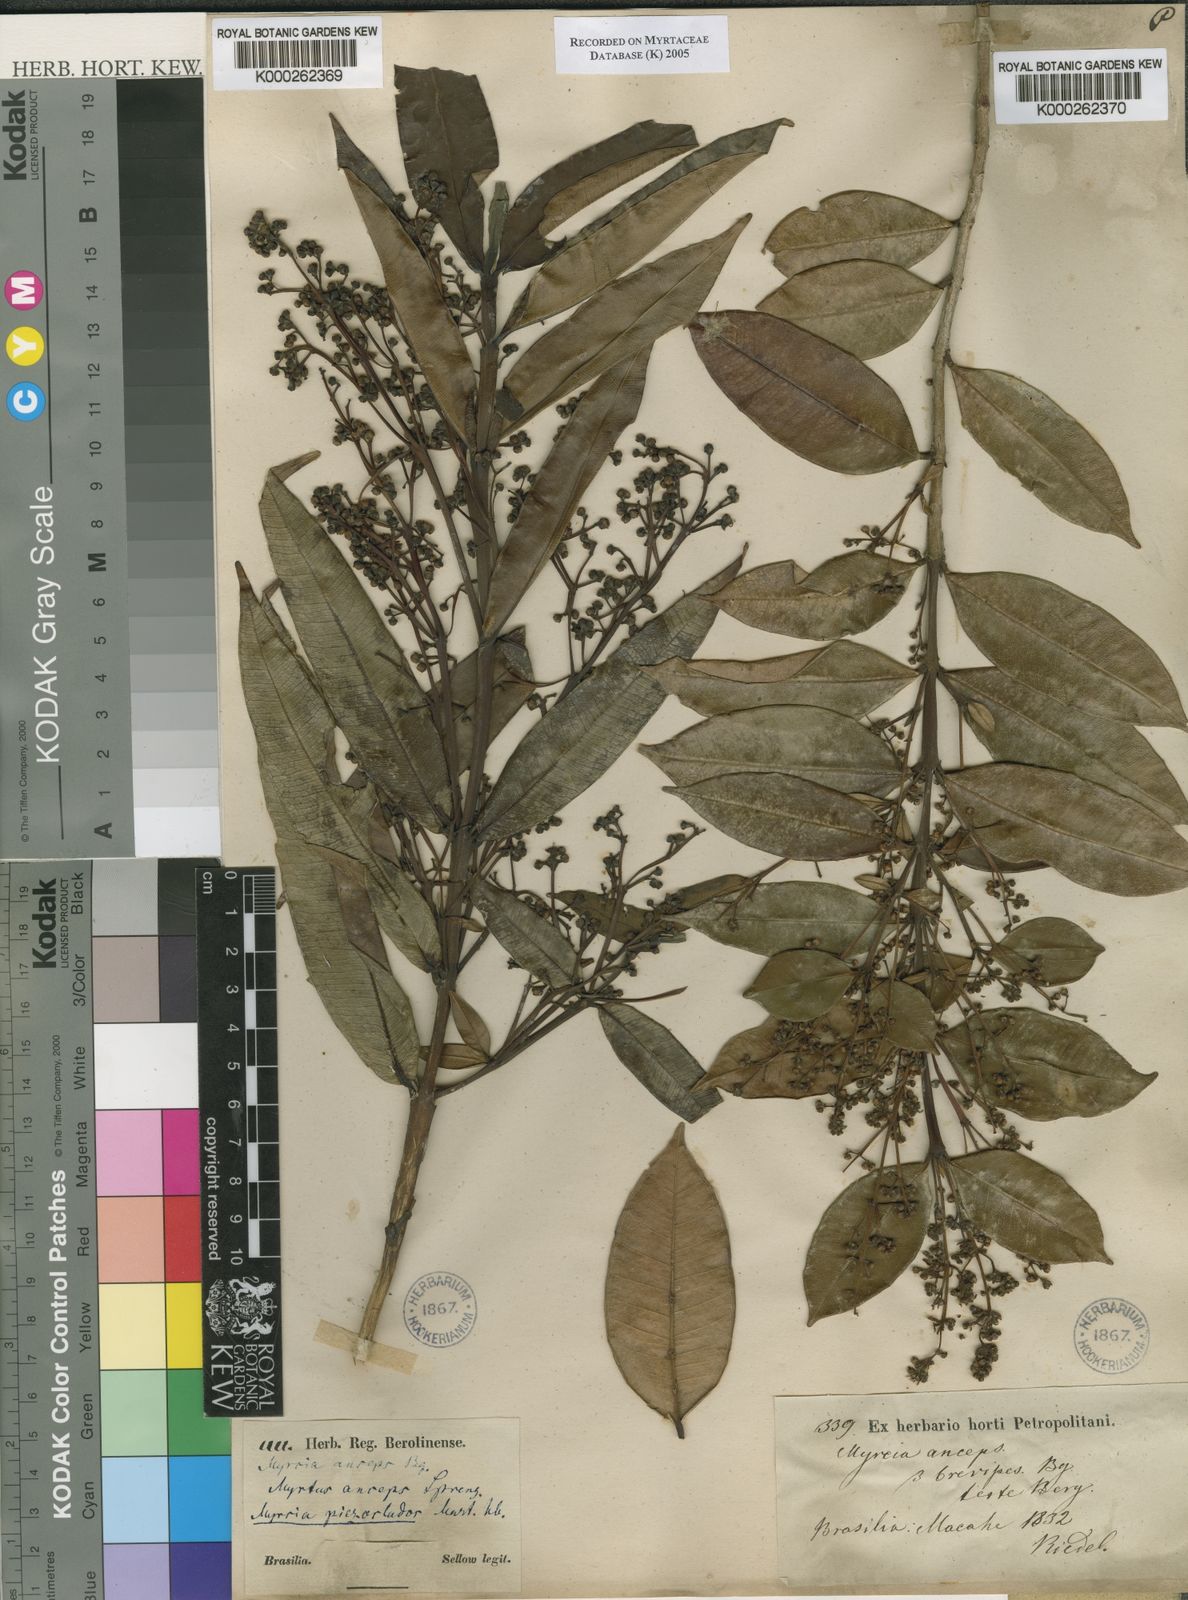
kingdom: Plantae
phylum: Tracheophyta
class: Magnoliopsida
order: Myrtales
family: Myrtaceae
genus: Myrcia
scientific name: Myrcia anceps
